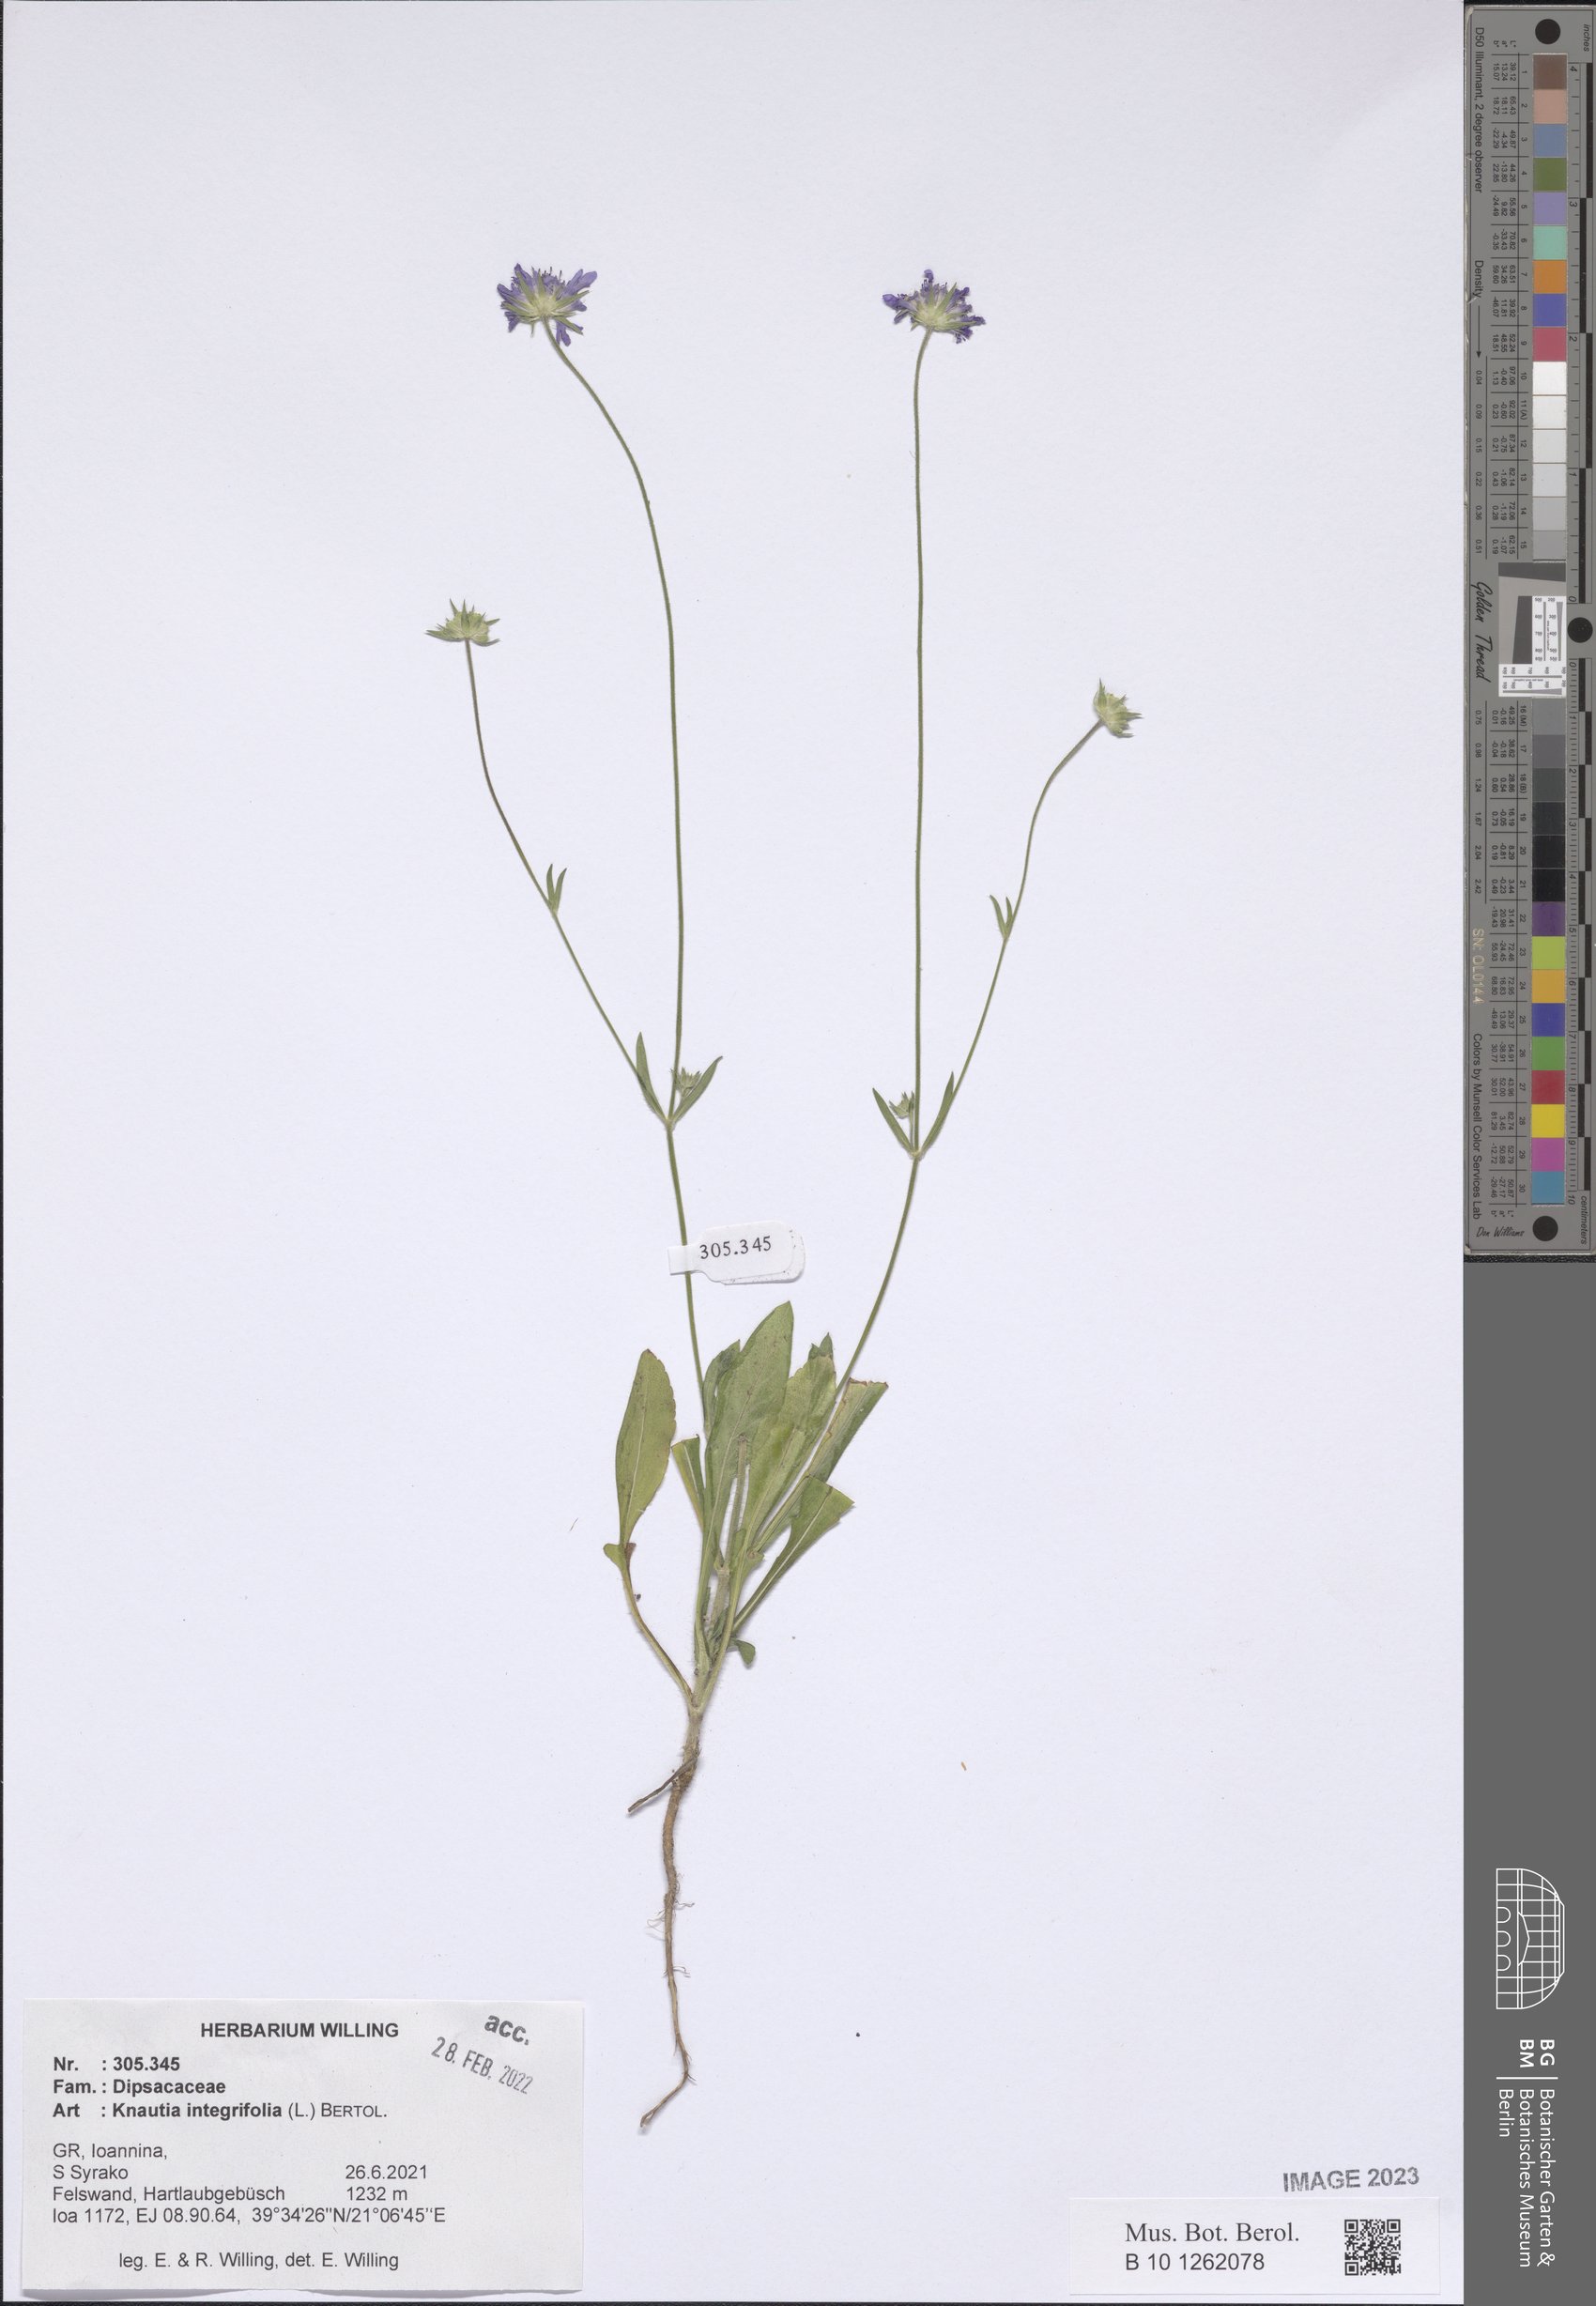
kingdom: Plantae
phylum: Tracheophyta
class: Magnoliopsida
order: Dipsacales
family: Caprifoliaceae
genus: Knautia
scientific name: Knautia integrifolia
